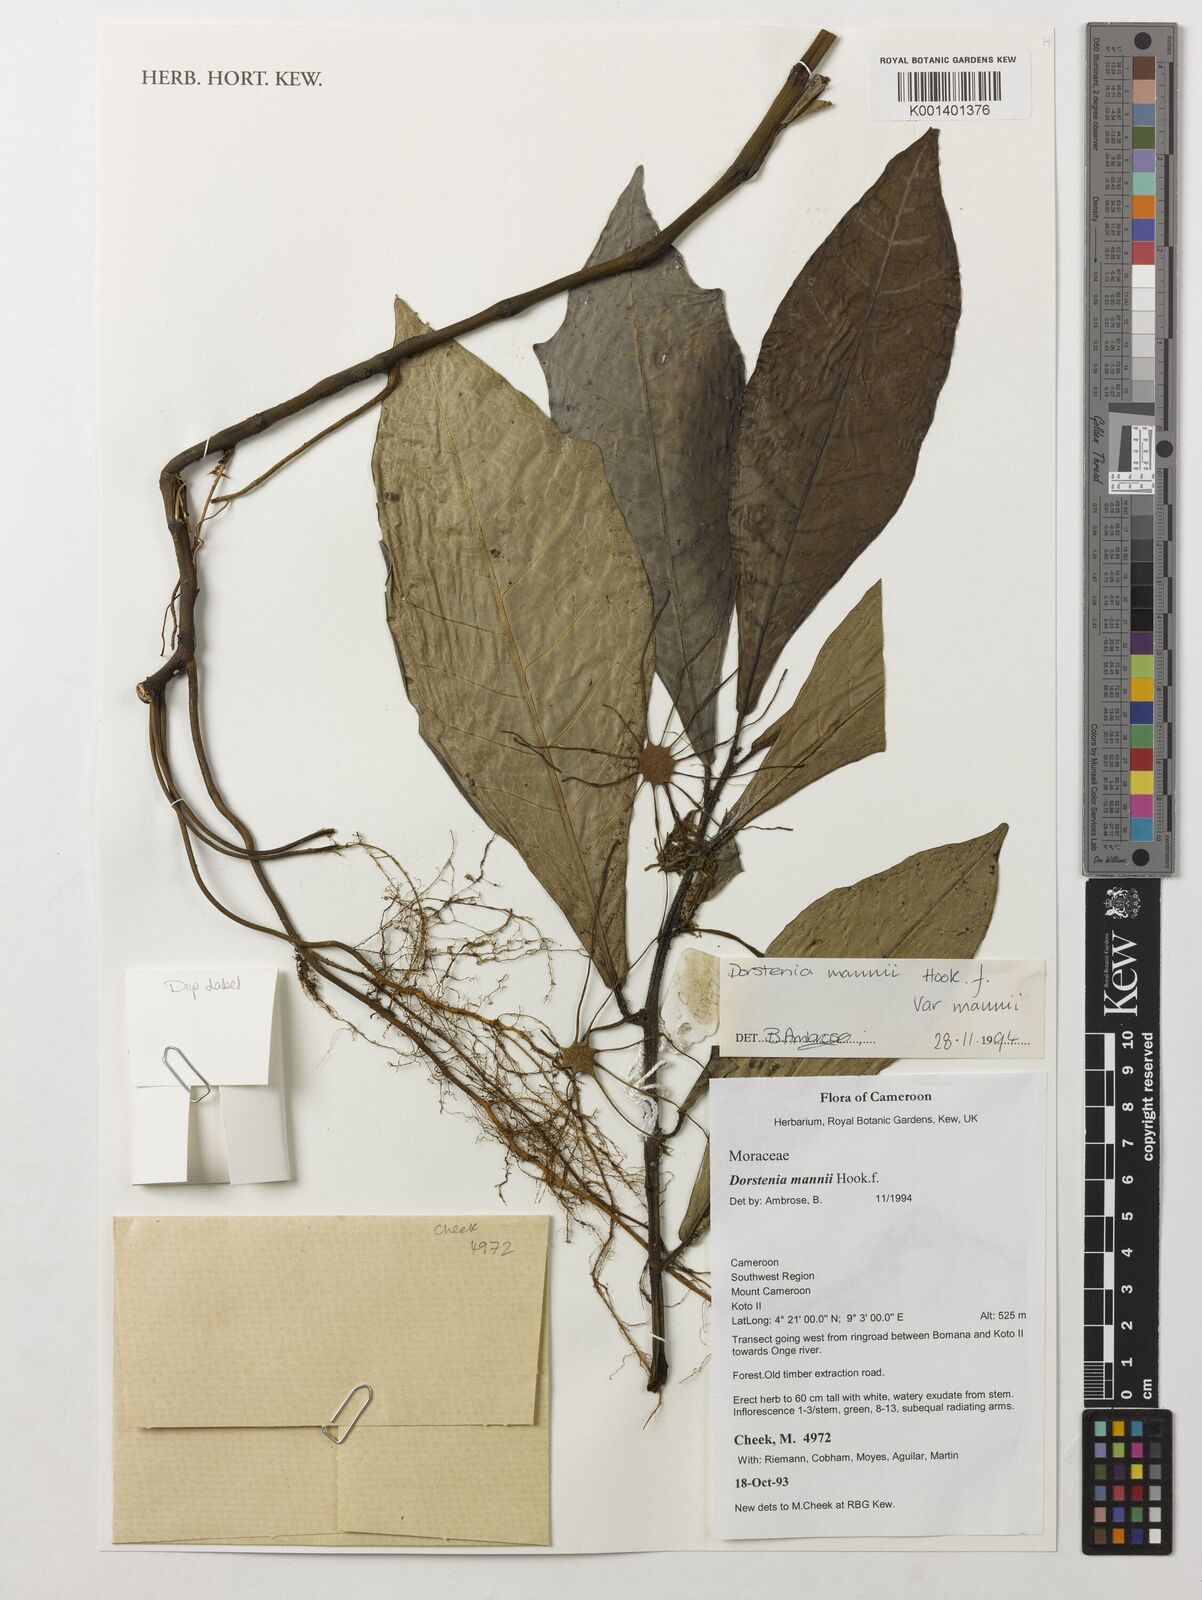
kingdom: Plantae
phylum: Tracheophyta
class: Magnoliopsida
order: Rosales
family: Moraceae
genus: Dorstenia
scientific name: Dorstenia mannii
